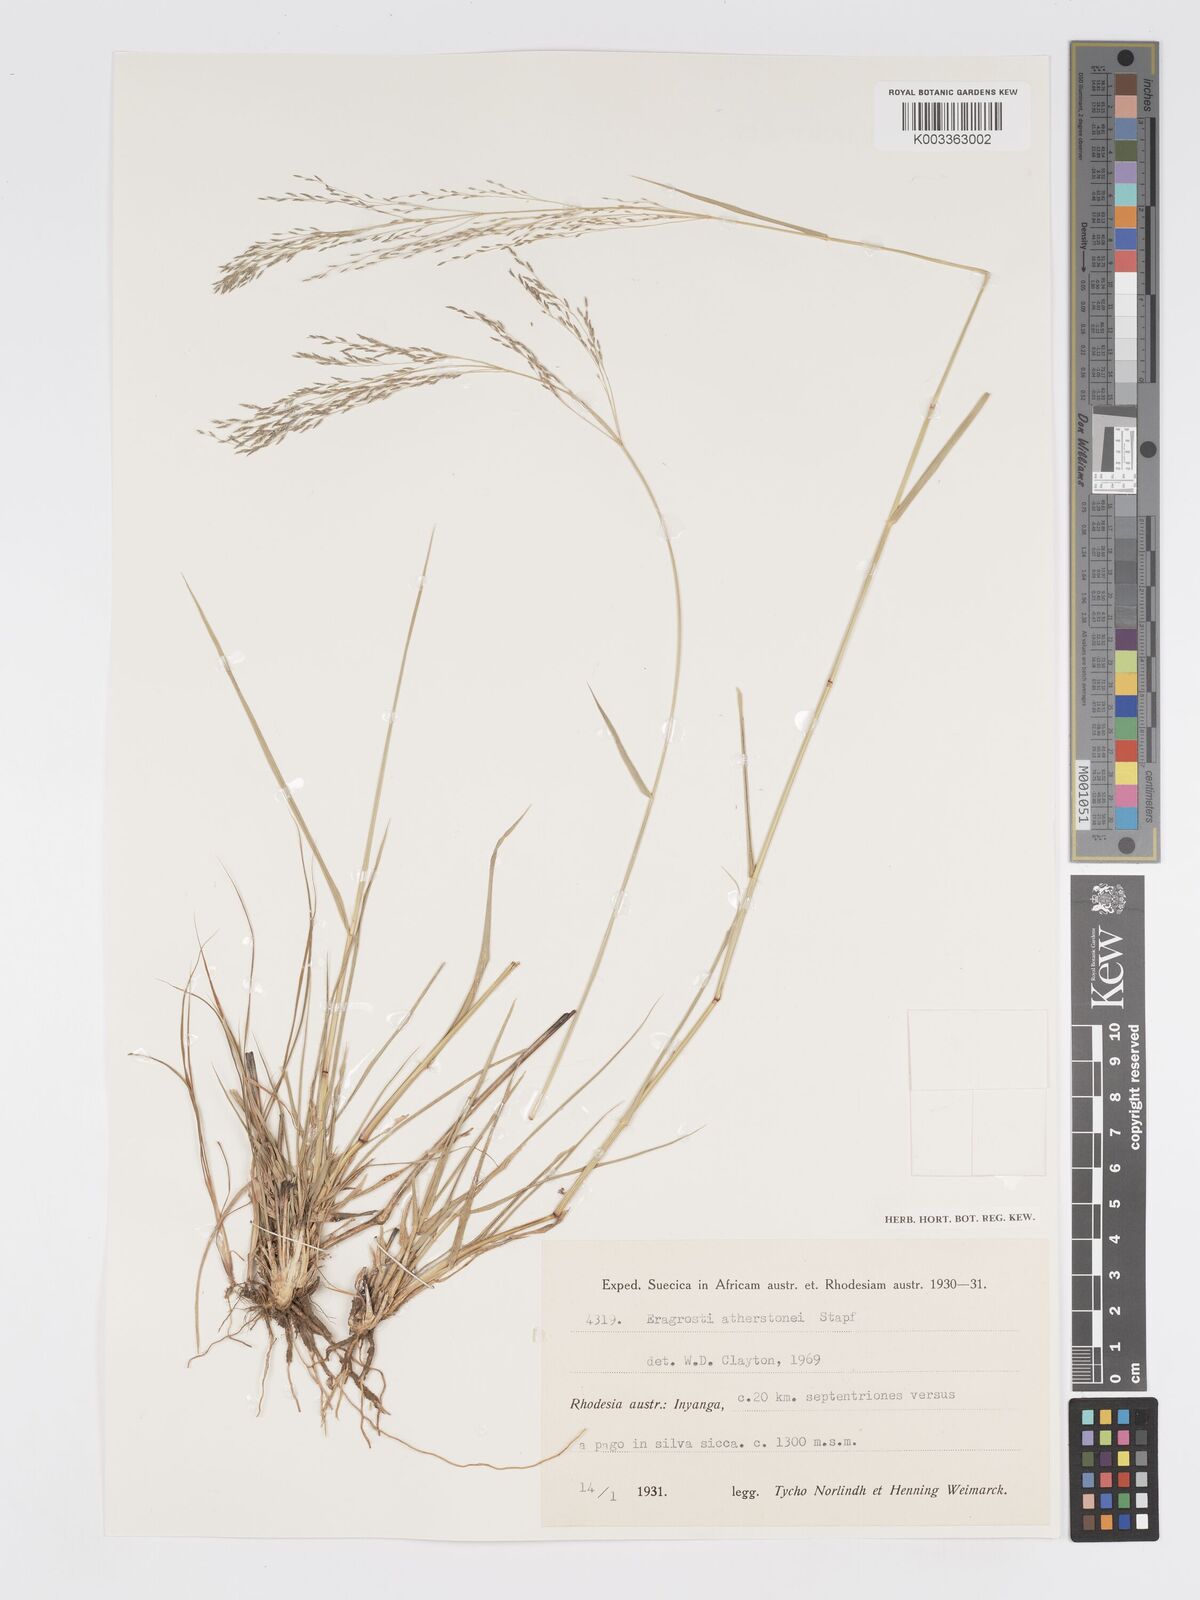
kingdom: Plantae
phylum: Tracheophyta
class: Liliopsida
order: Poales
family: Poaceae
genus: Eragrostis
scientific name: Eragrostis cylindriflora
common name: Cylinderflower lovegrass
